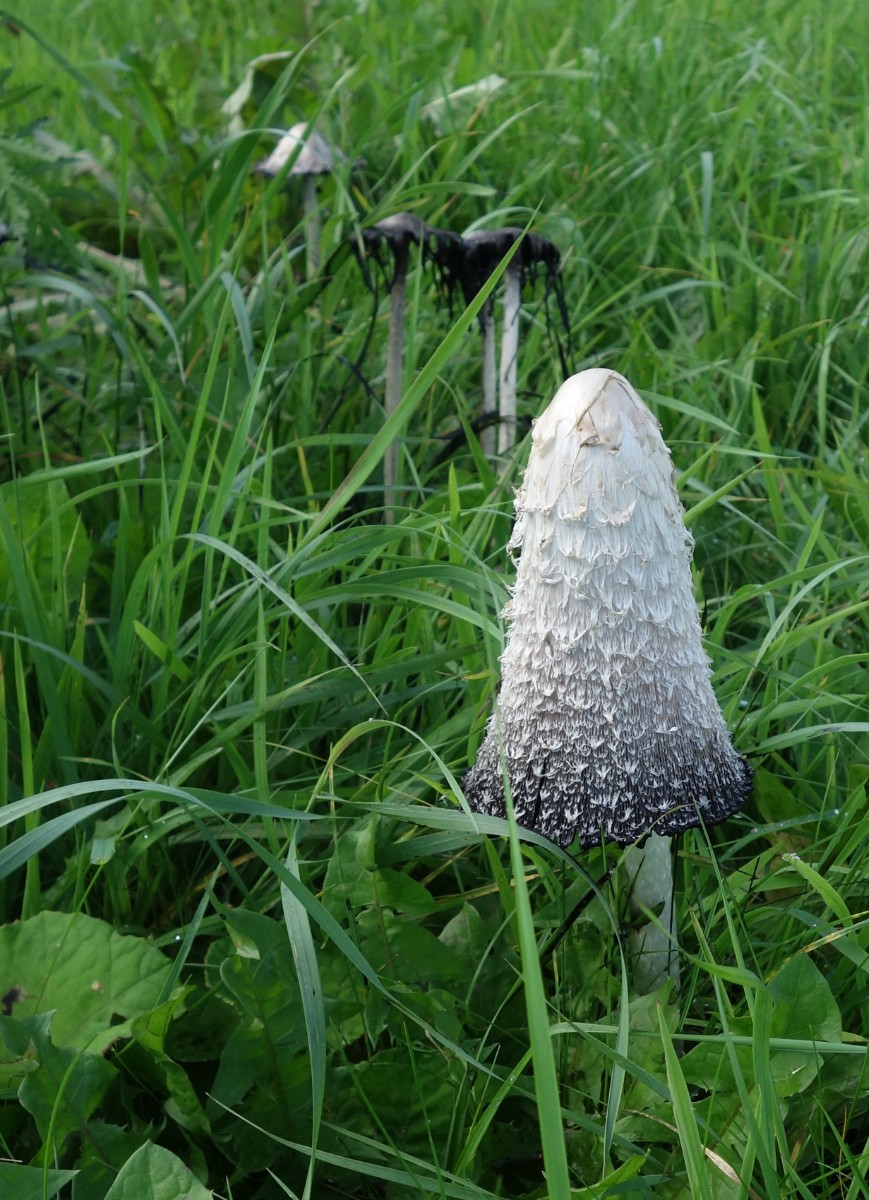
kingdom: Fungi
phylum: Basidiomycota
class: Agaricomycetes
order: Agaricales
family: Agaricaceae
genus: Coprinus
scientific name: Coprinus comatus
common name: stor parykhat
